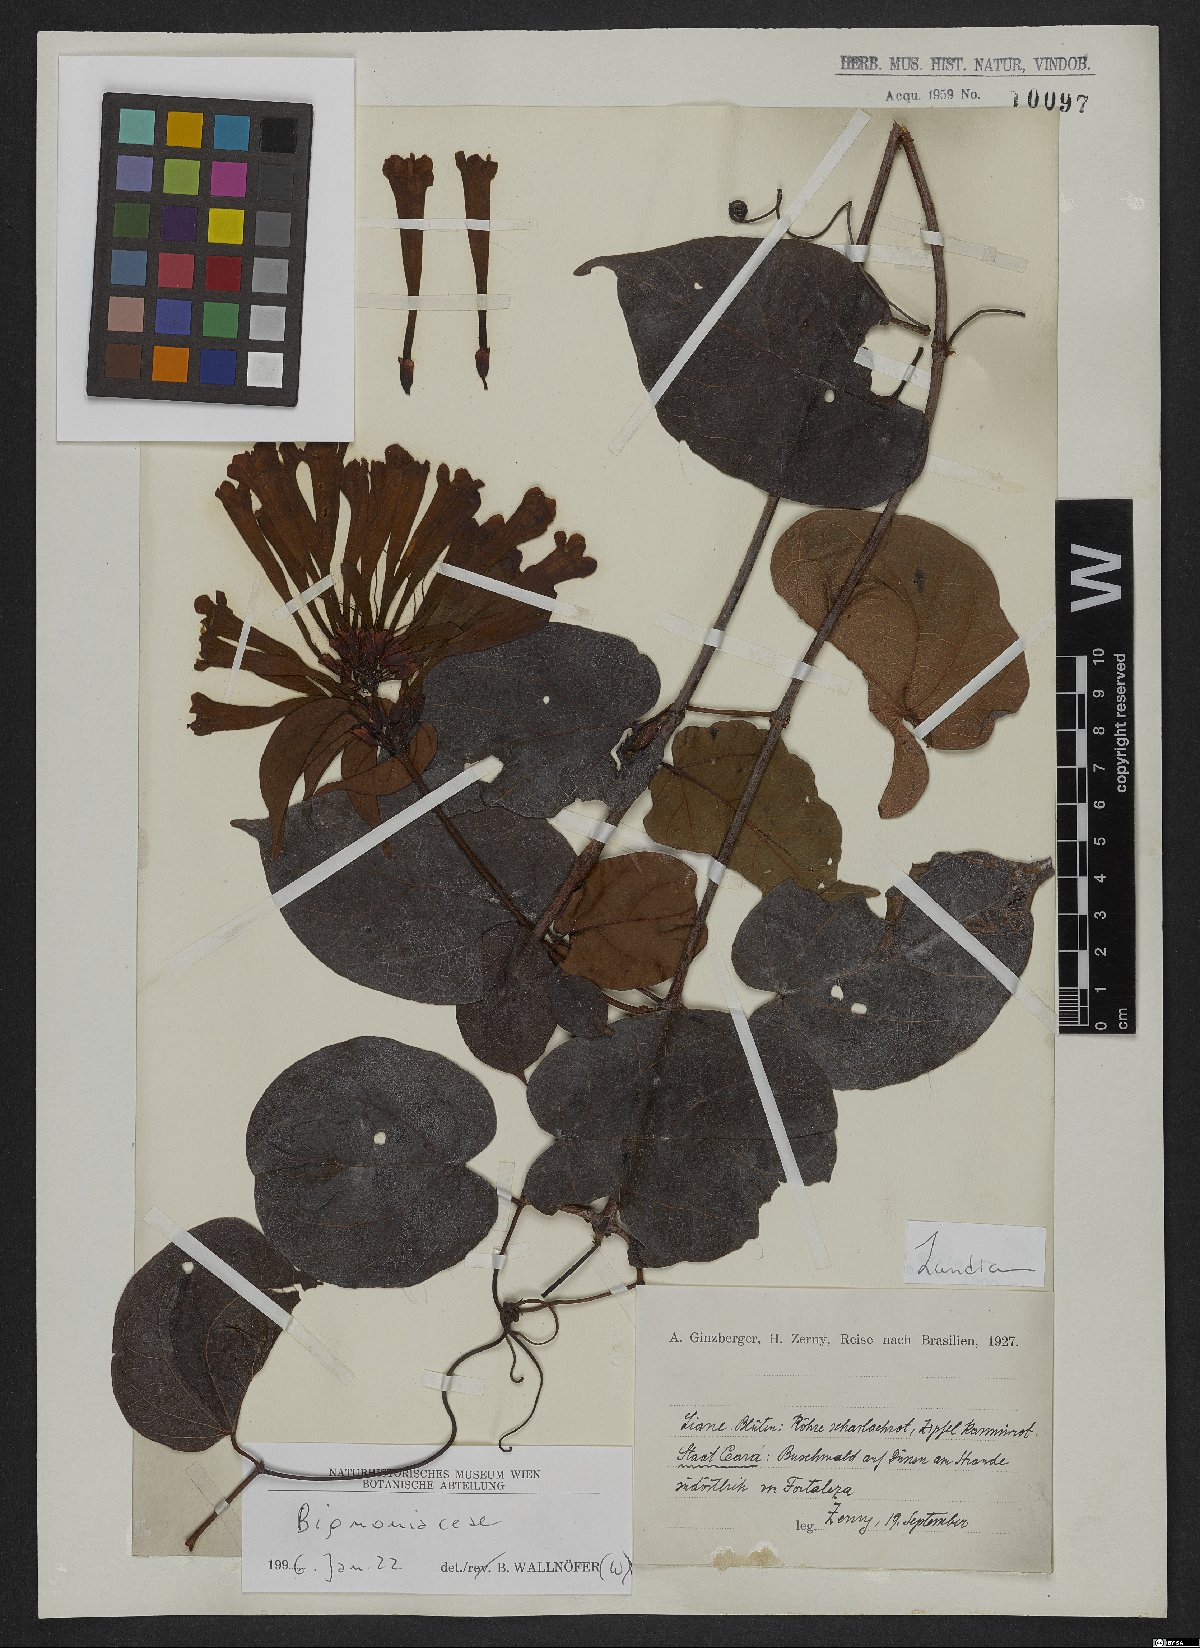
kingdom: Plantae
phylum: Tracheophyta
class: Magnoliopsida
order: Lamiales
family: Bignoniaceae
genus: Lundia
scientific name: Lundia
